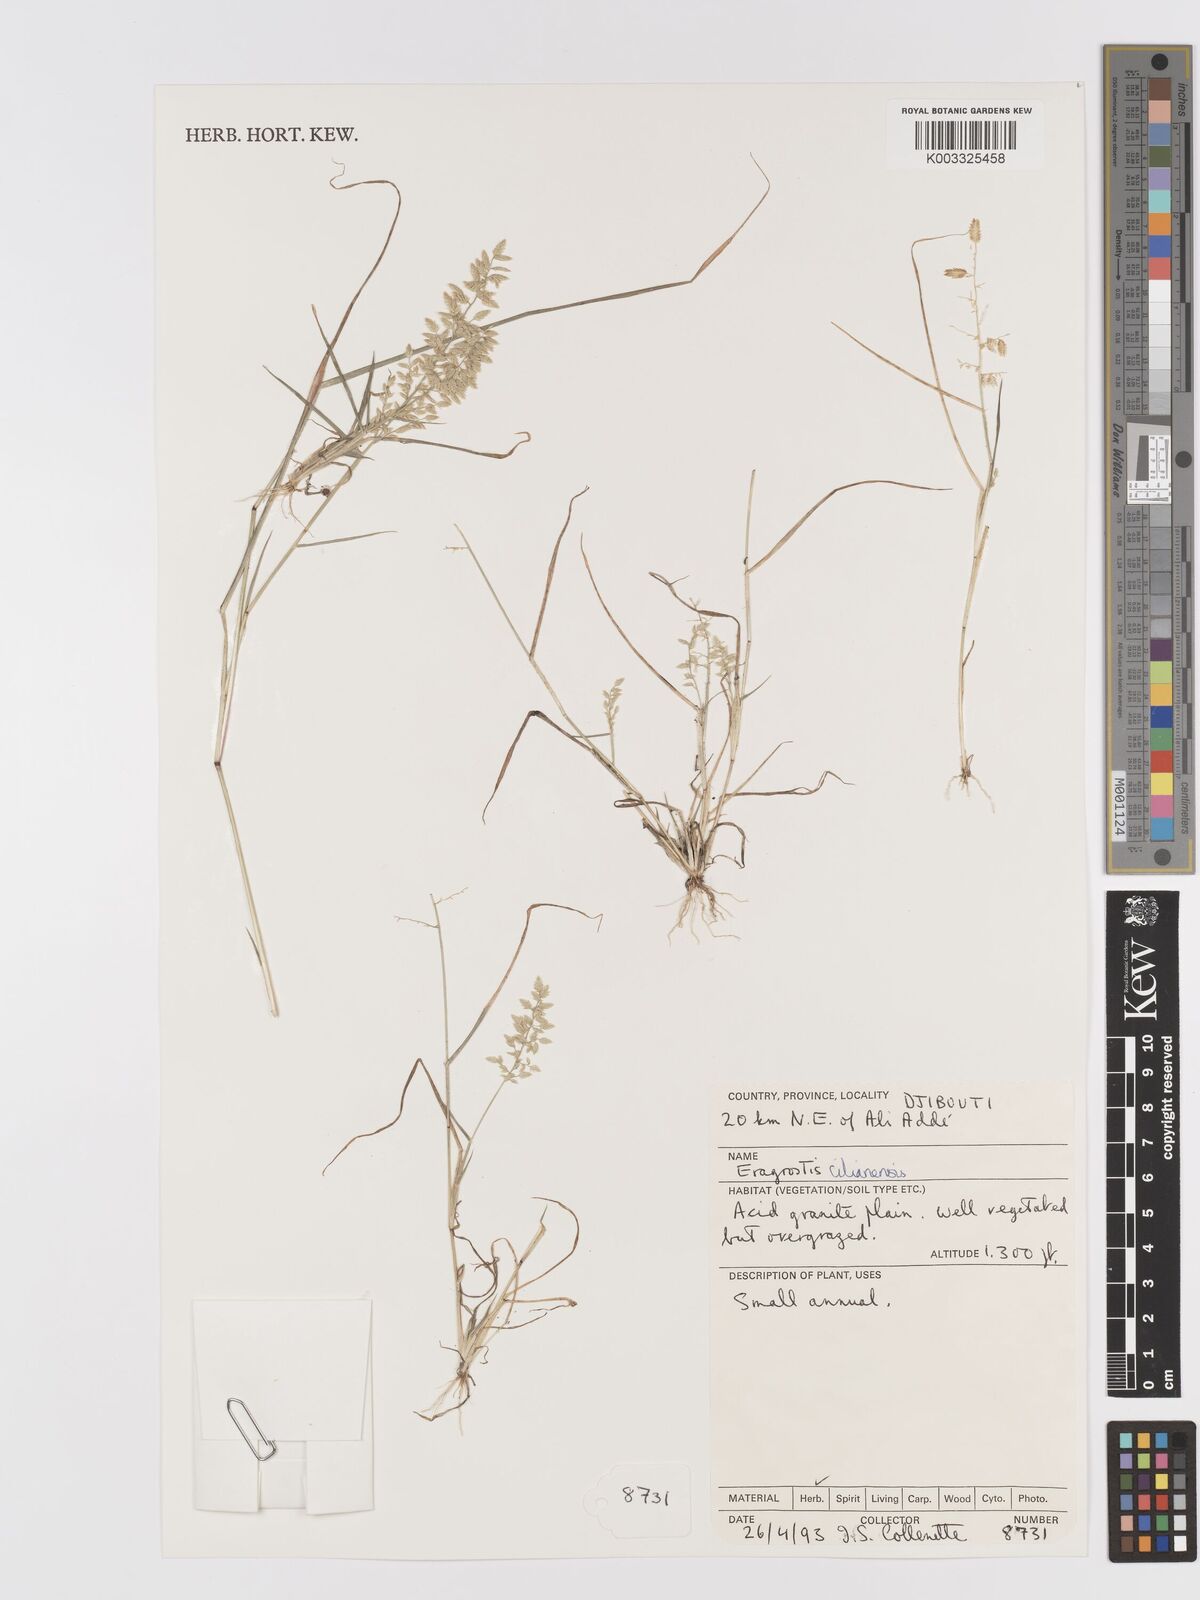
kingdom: Plantae
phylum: Tracheophyta
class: Liliopsida
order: Poales
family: Poaceae
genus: Eragrostis
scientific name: Eragrostis cilianensis
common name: Stinkgrass
